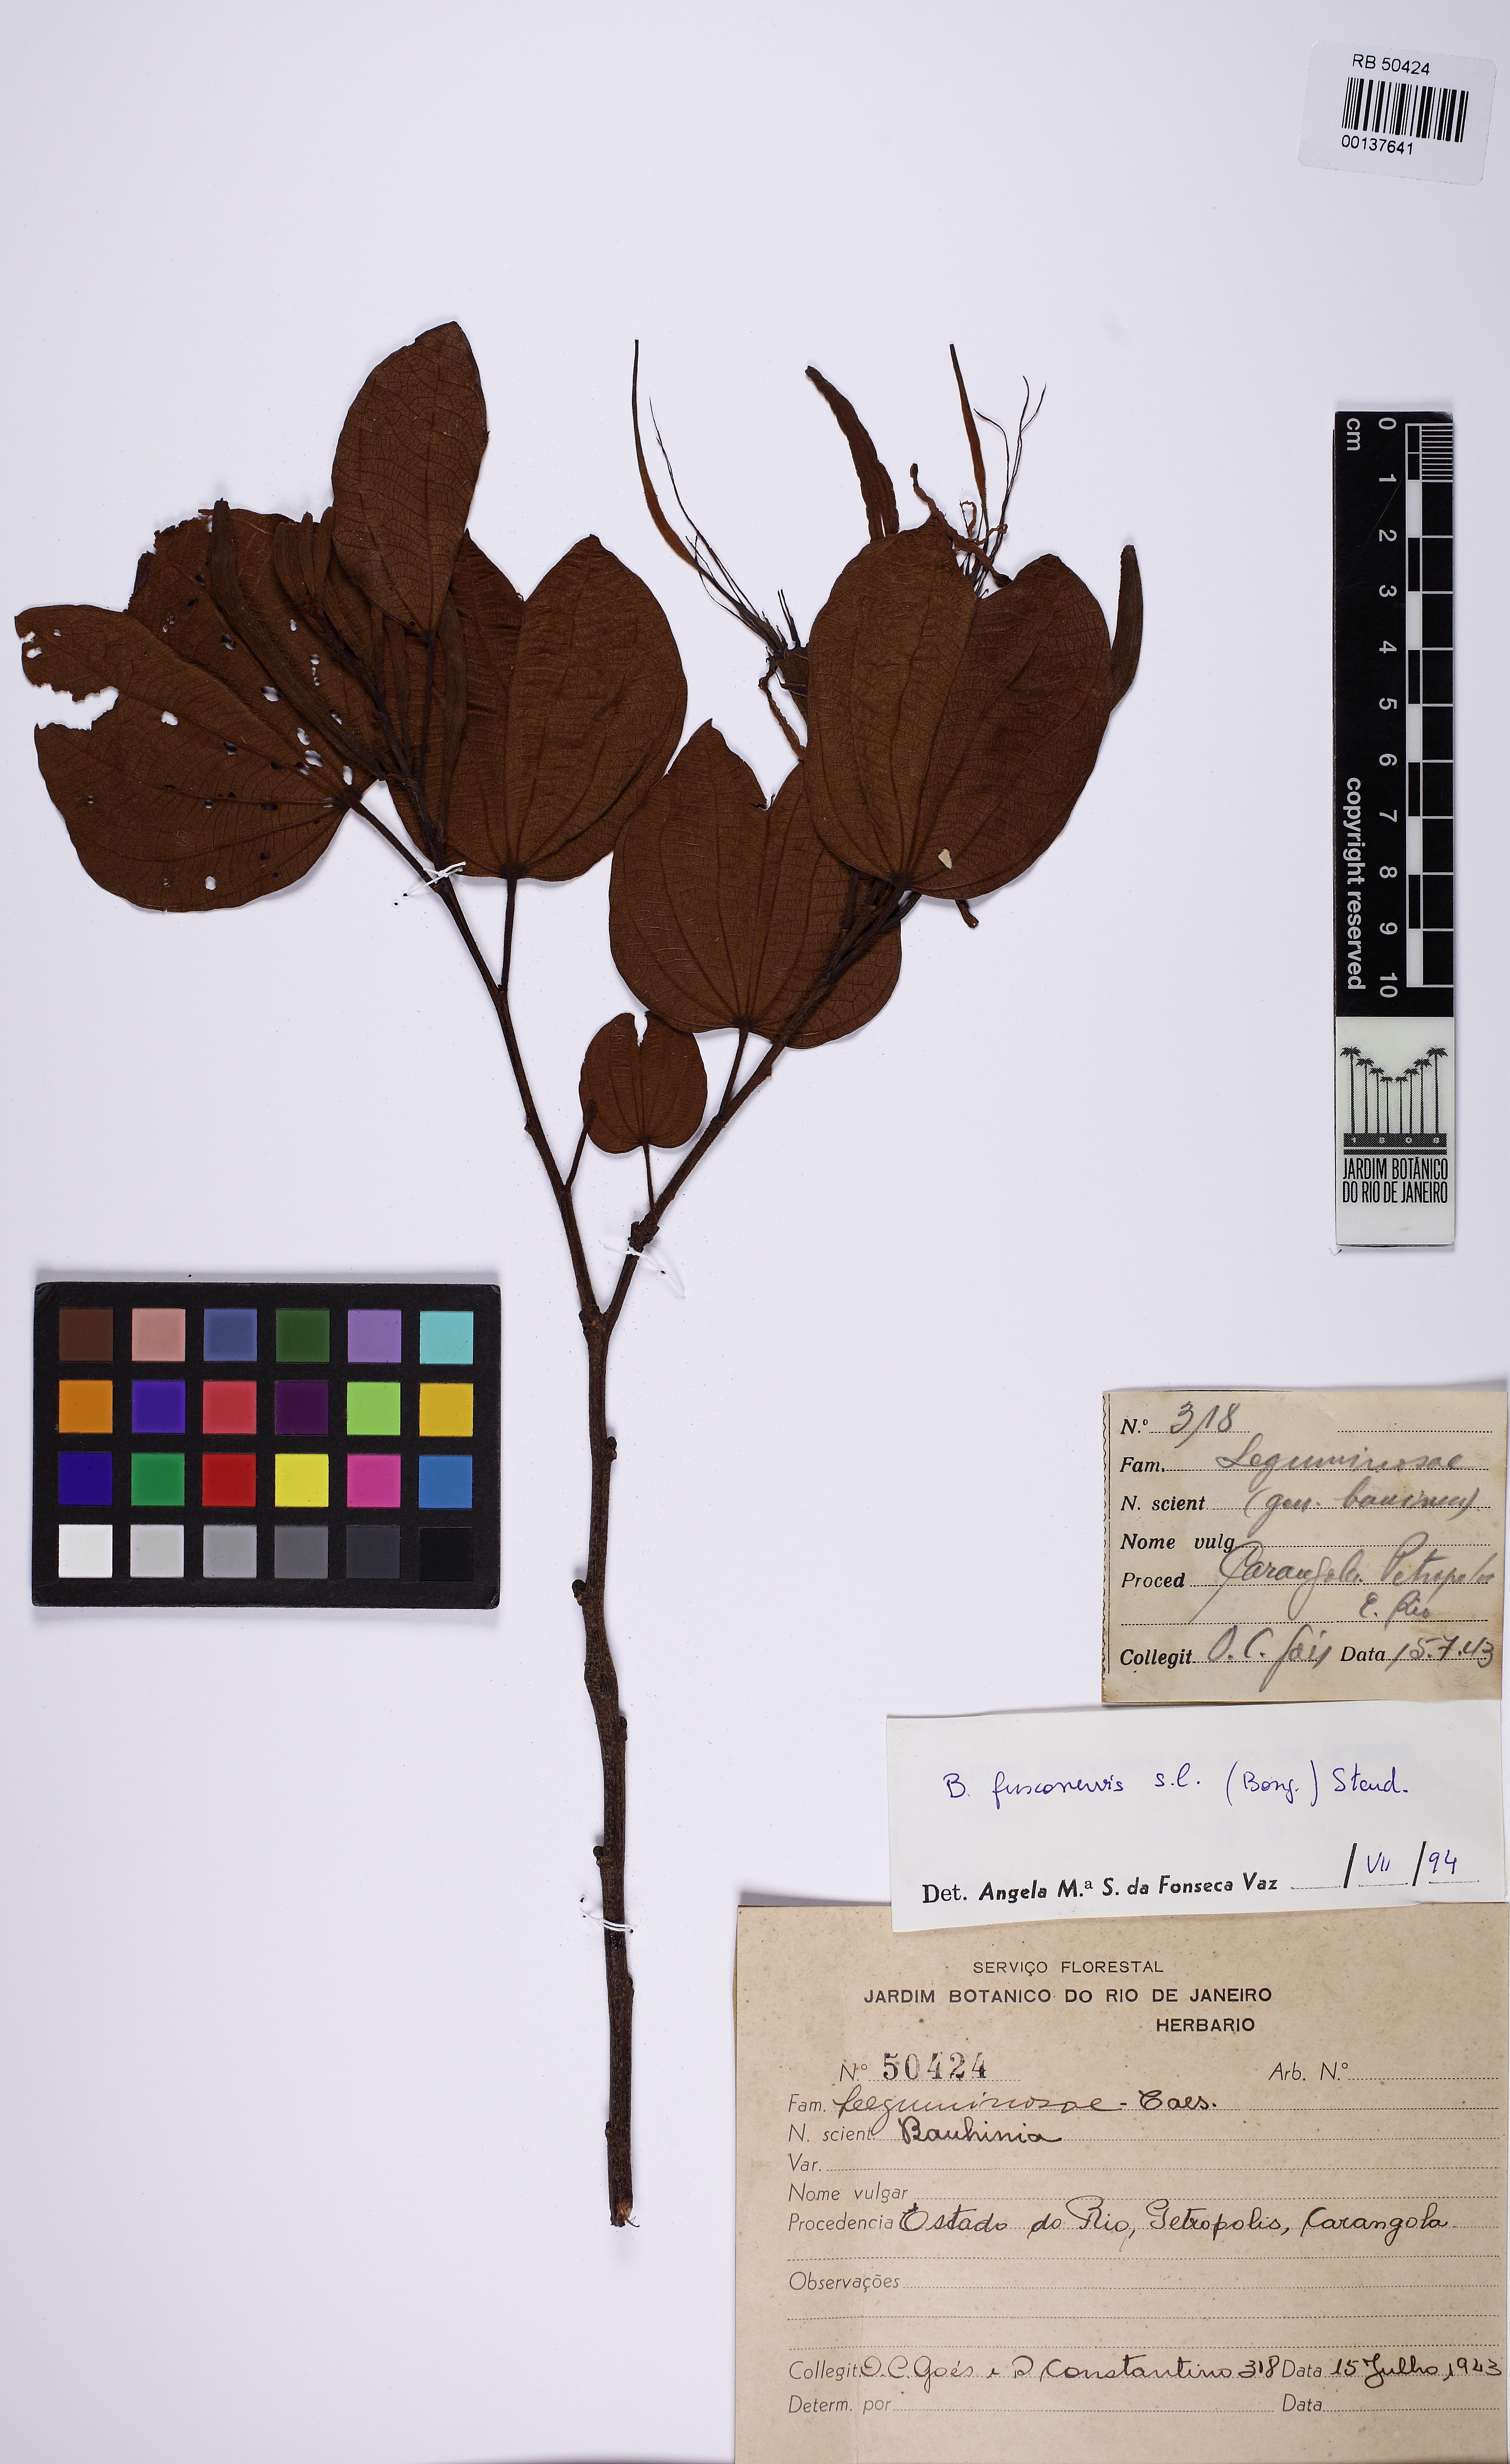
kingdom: Plantae
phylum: Tracheophyta
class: Magnoliopsida
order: Fabales
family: Fabaceae
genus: Bauhinia
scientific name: Bauhinia longifolia
